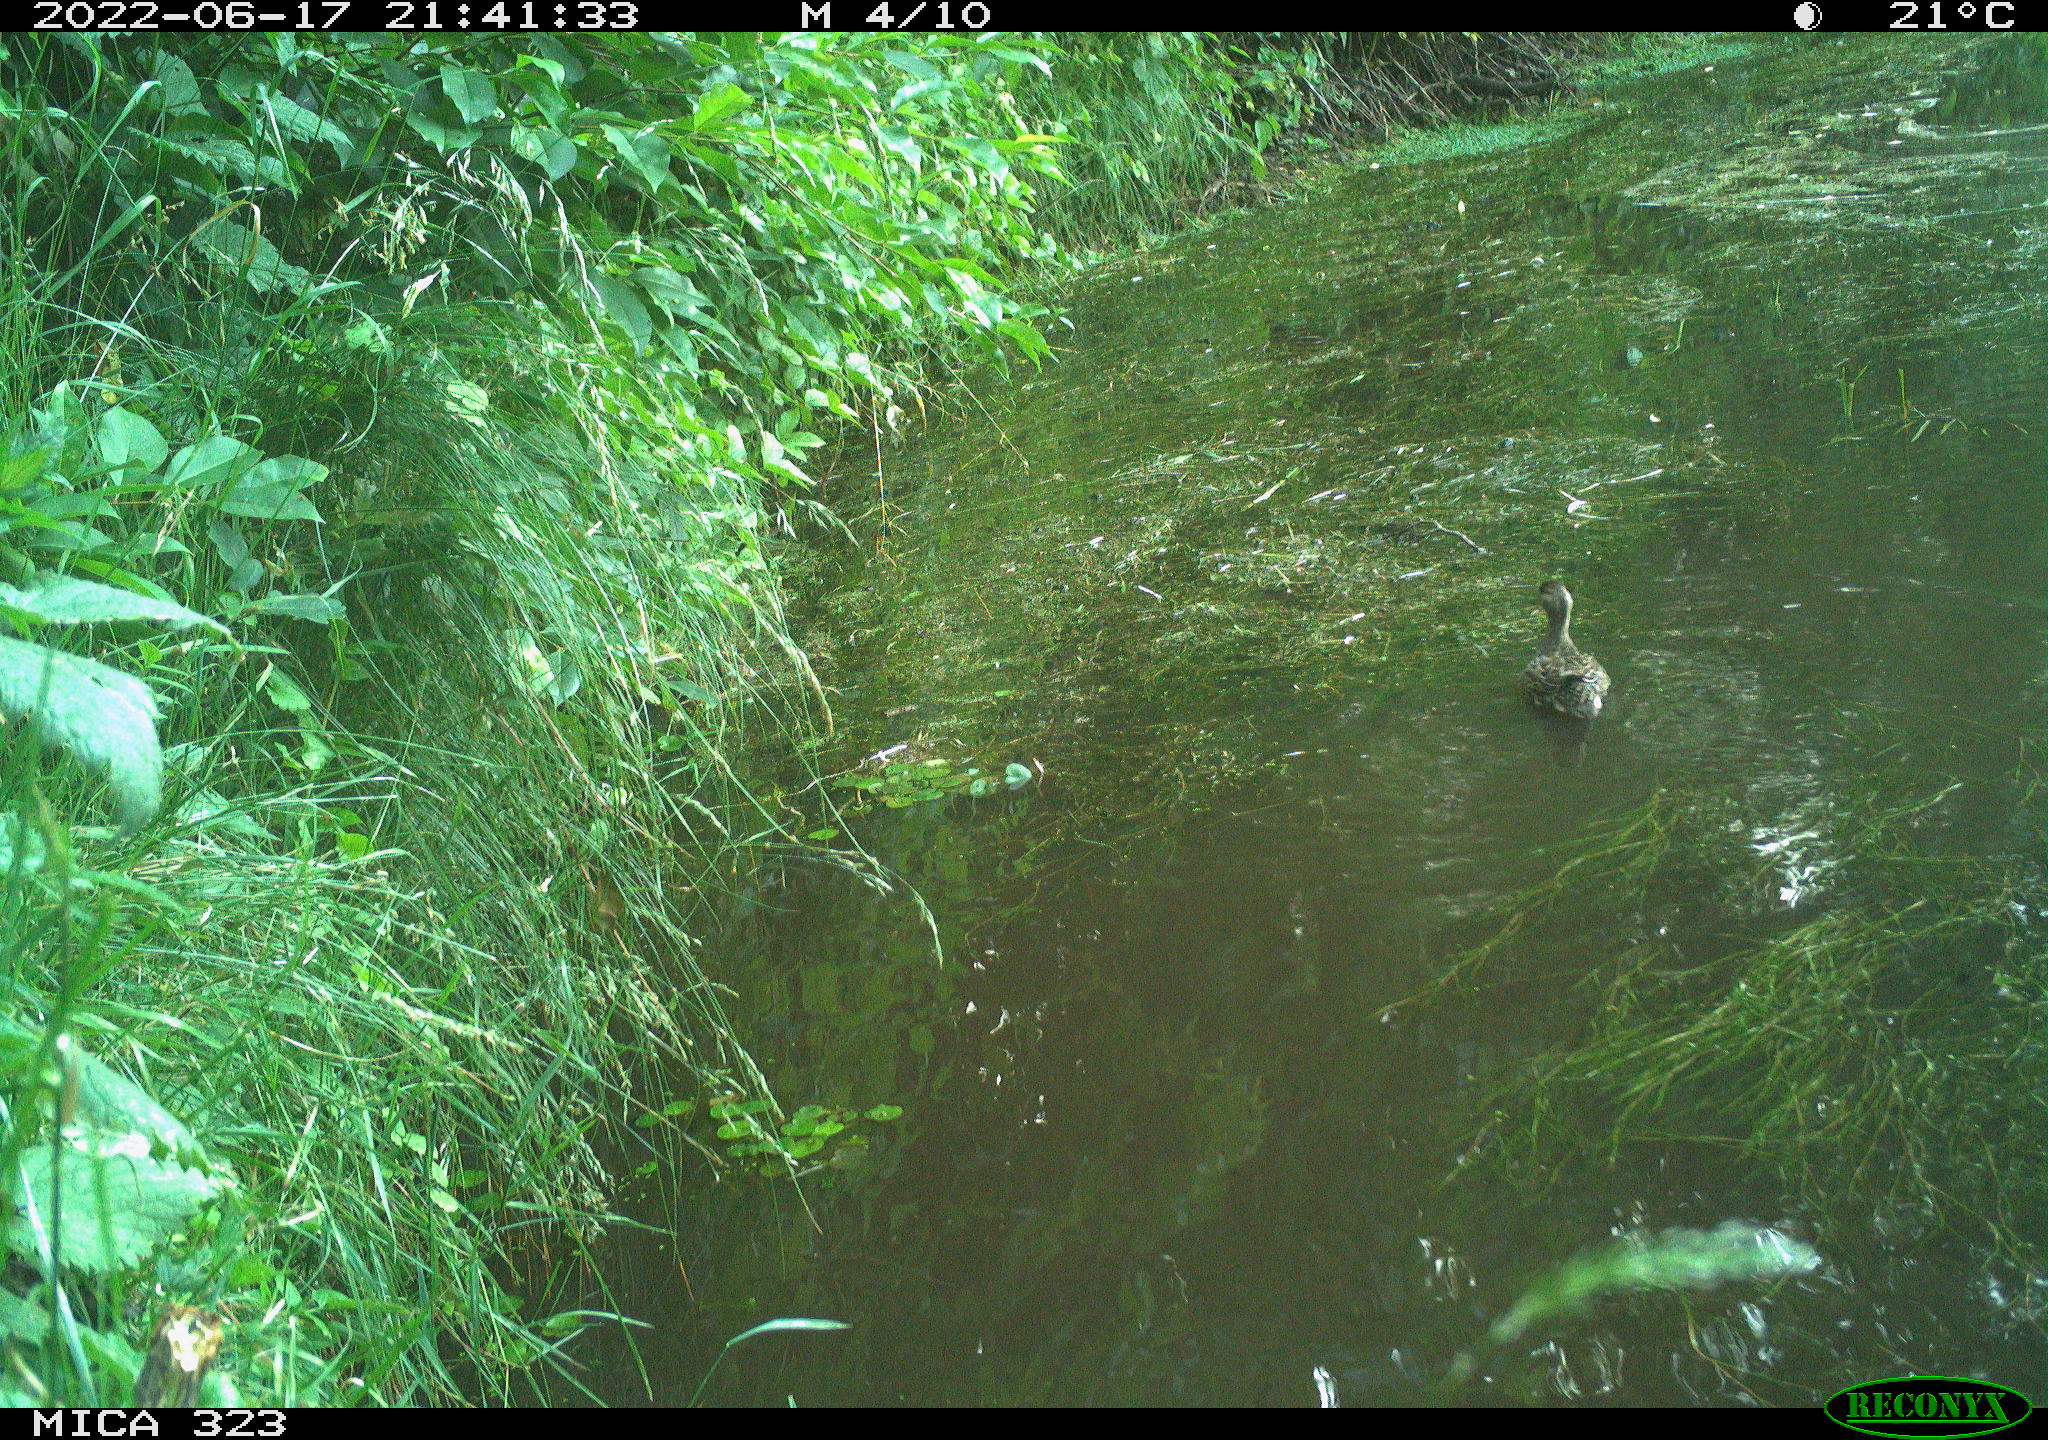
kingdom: Animalia
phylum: Chordata
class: Aves
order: Anseriformes
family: Anatidae
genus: Anas
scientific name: Anas platyrhynchos
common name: Mallard
